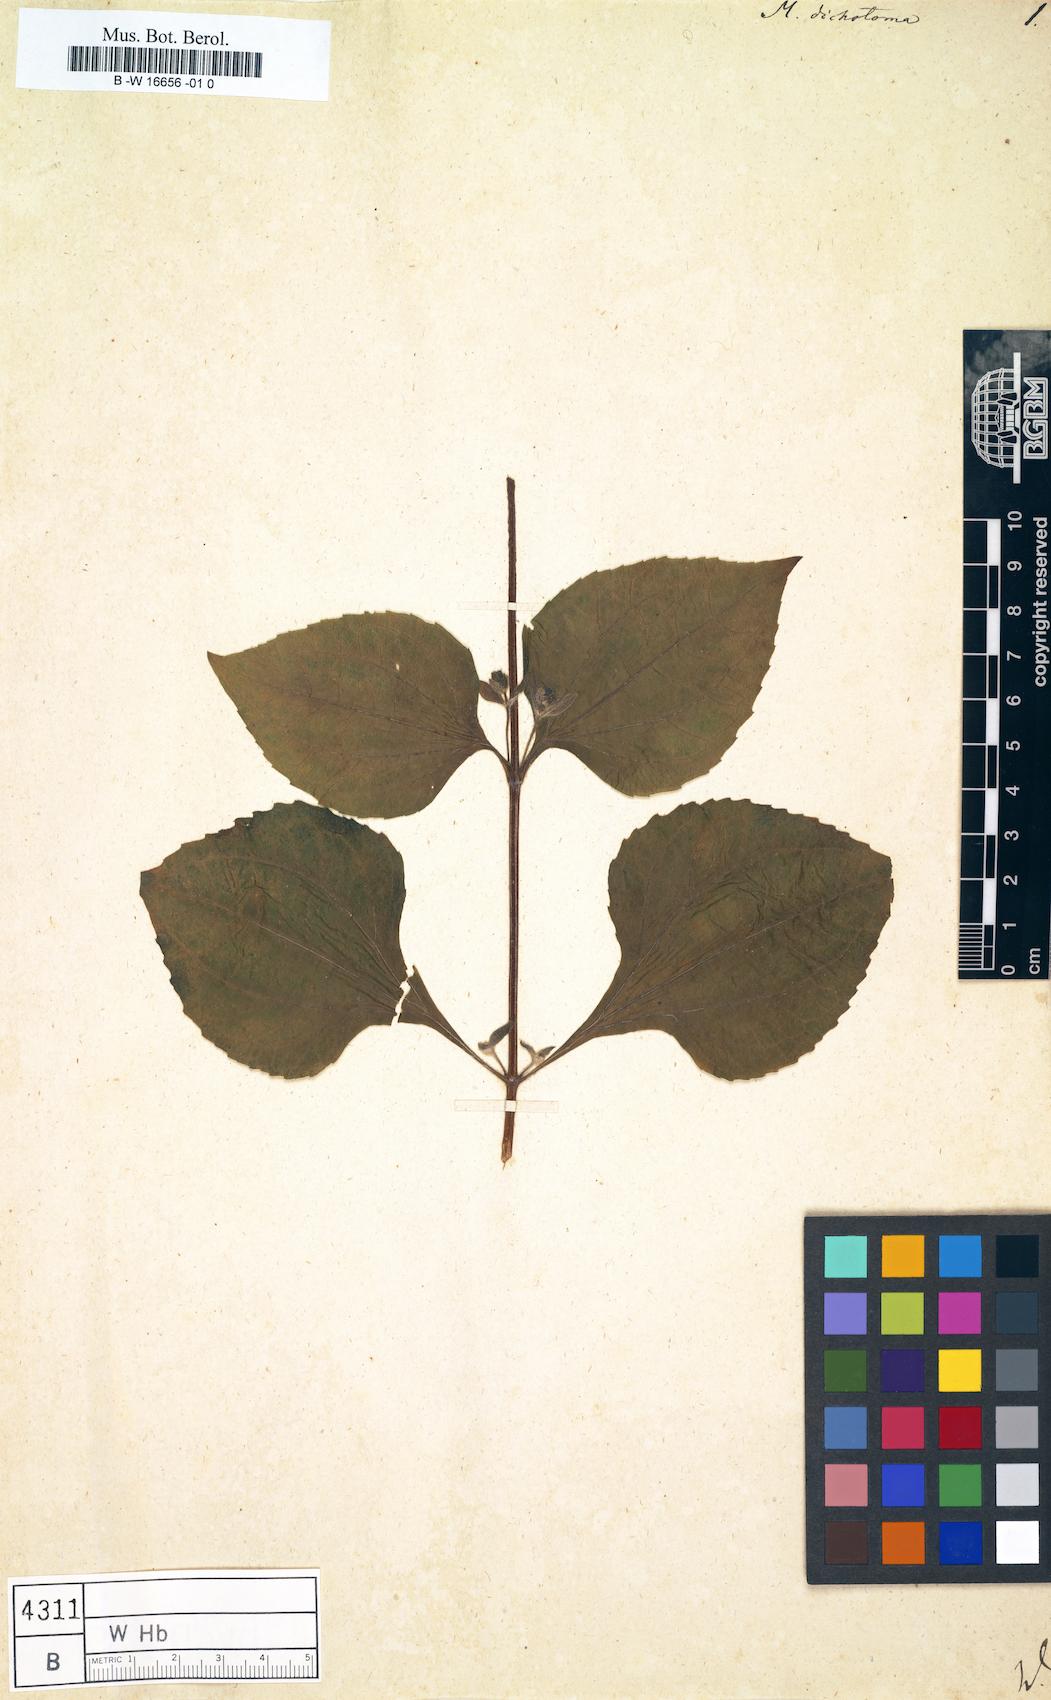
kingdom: Plantae
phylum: Tracheophyta
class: Magnoliopsida
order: Asterales
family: Asteraceae
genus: Milleria
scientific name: Milleria quinqueflora
